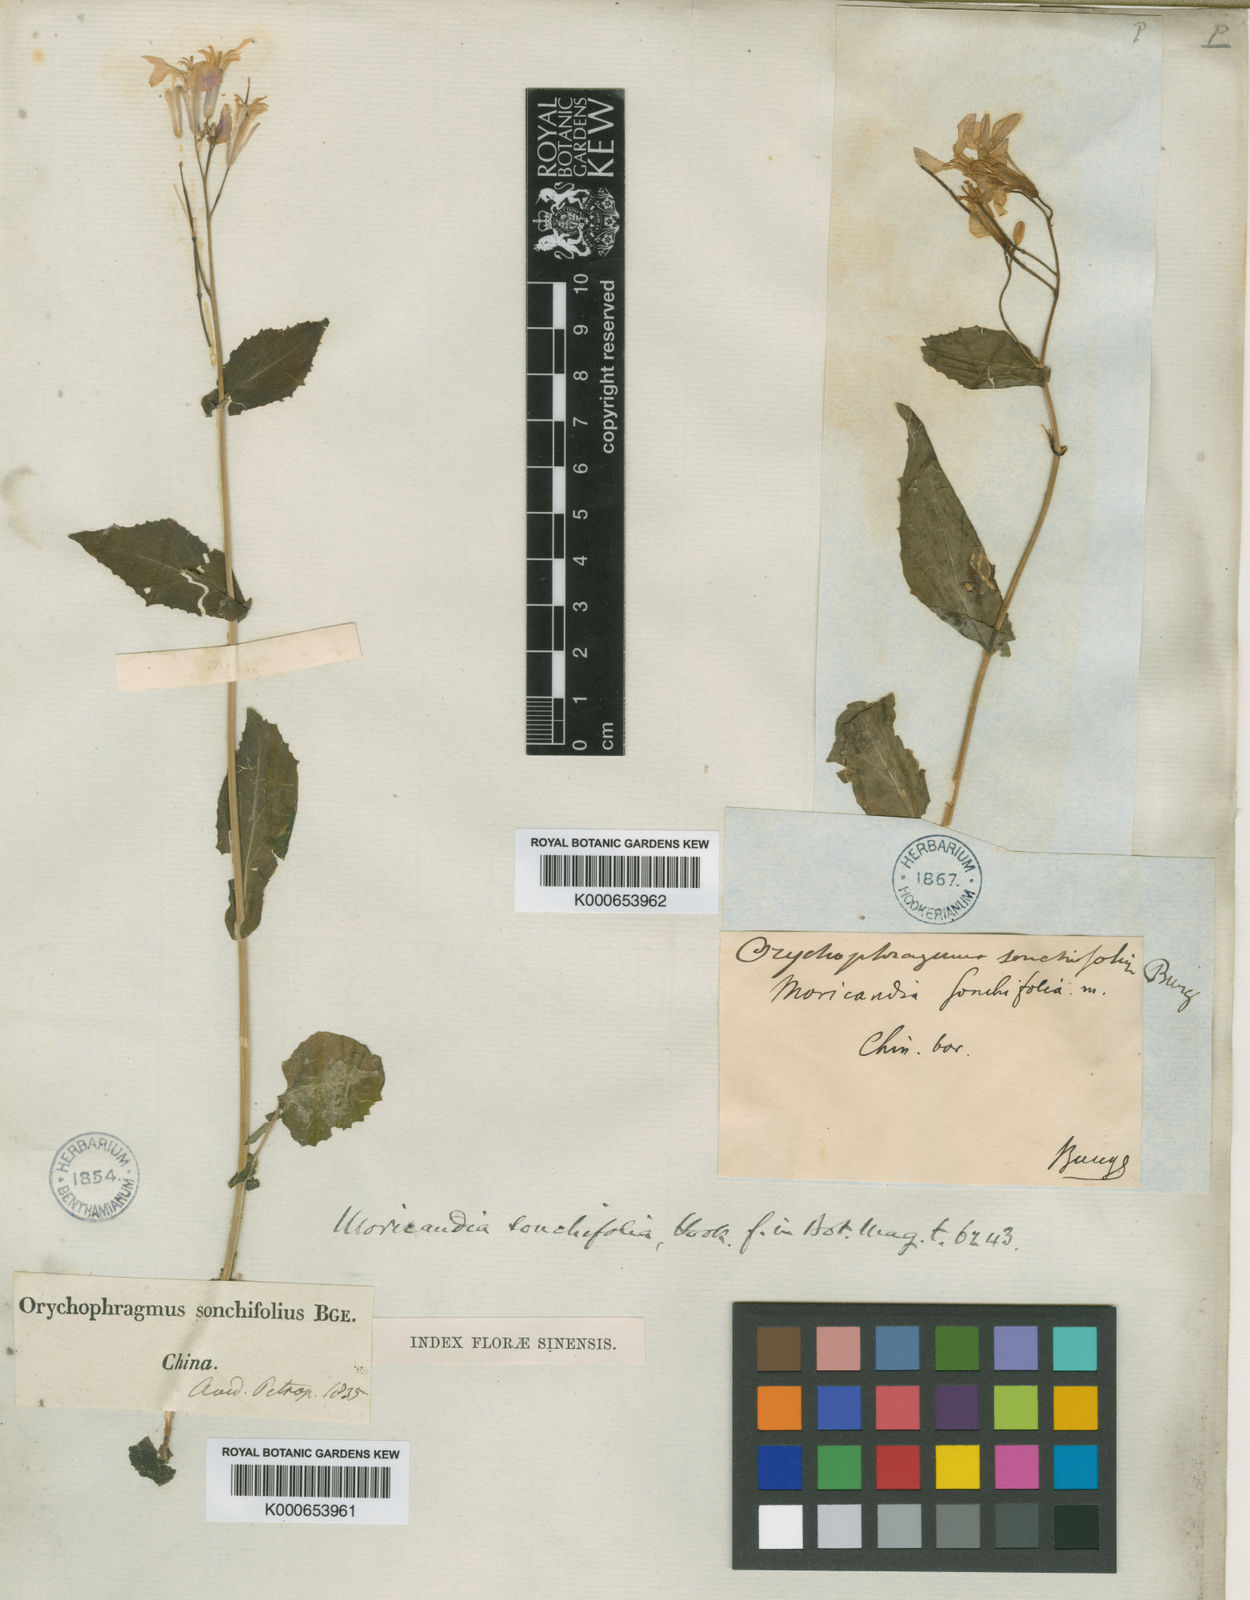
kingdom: Plantae
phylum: Tracheophyta
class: Magnoliopsida
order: Brassicales
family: Brassicaceae
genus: Douepea
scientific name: Douepea
